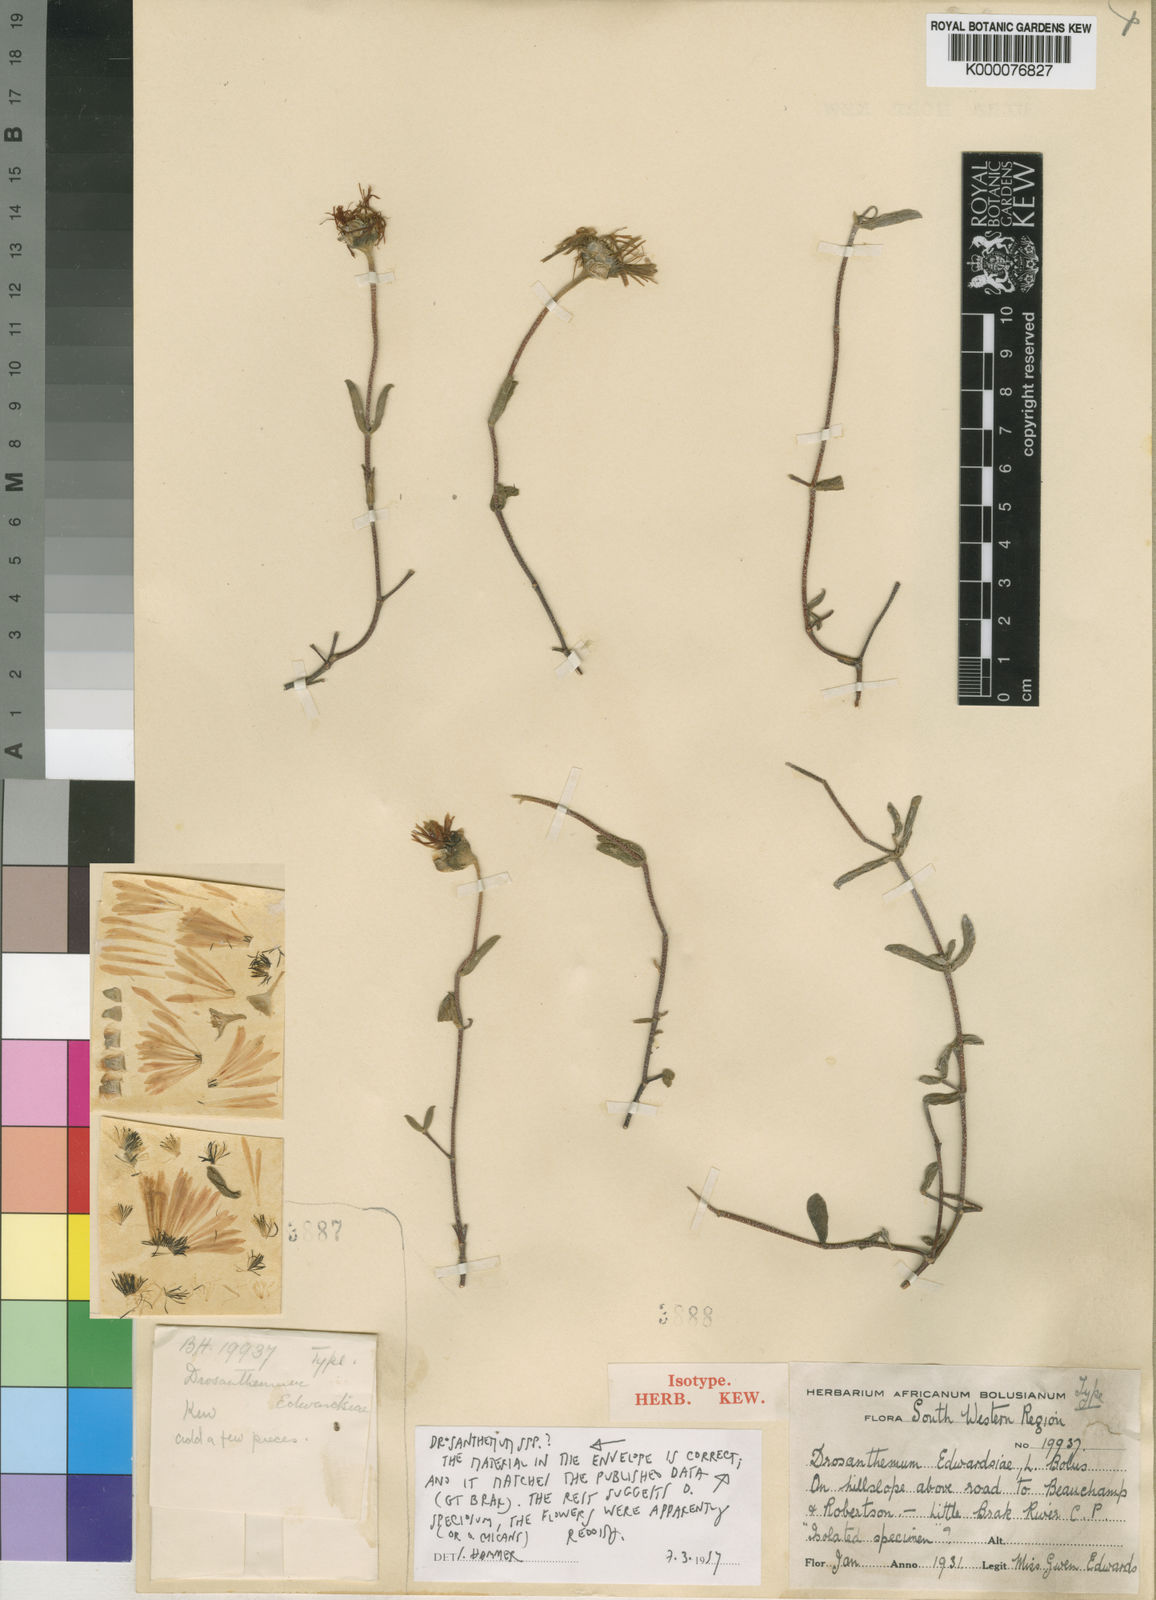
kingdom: Plantae
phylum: Tracheophyta
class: Magnoliopsida
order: Caryophyllales
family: Aizoaceae
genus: Drosanthemum
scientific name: Drosanthemum edwardsiae
